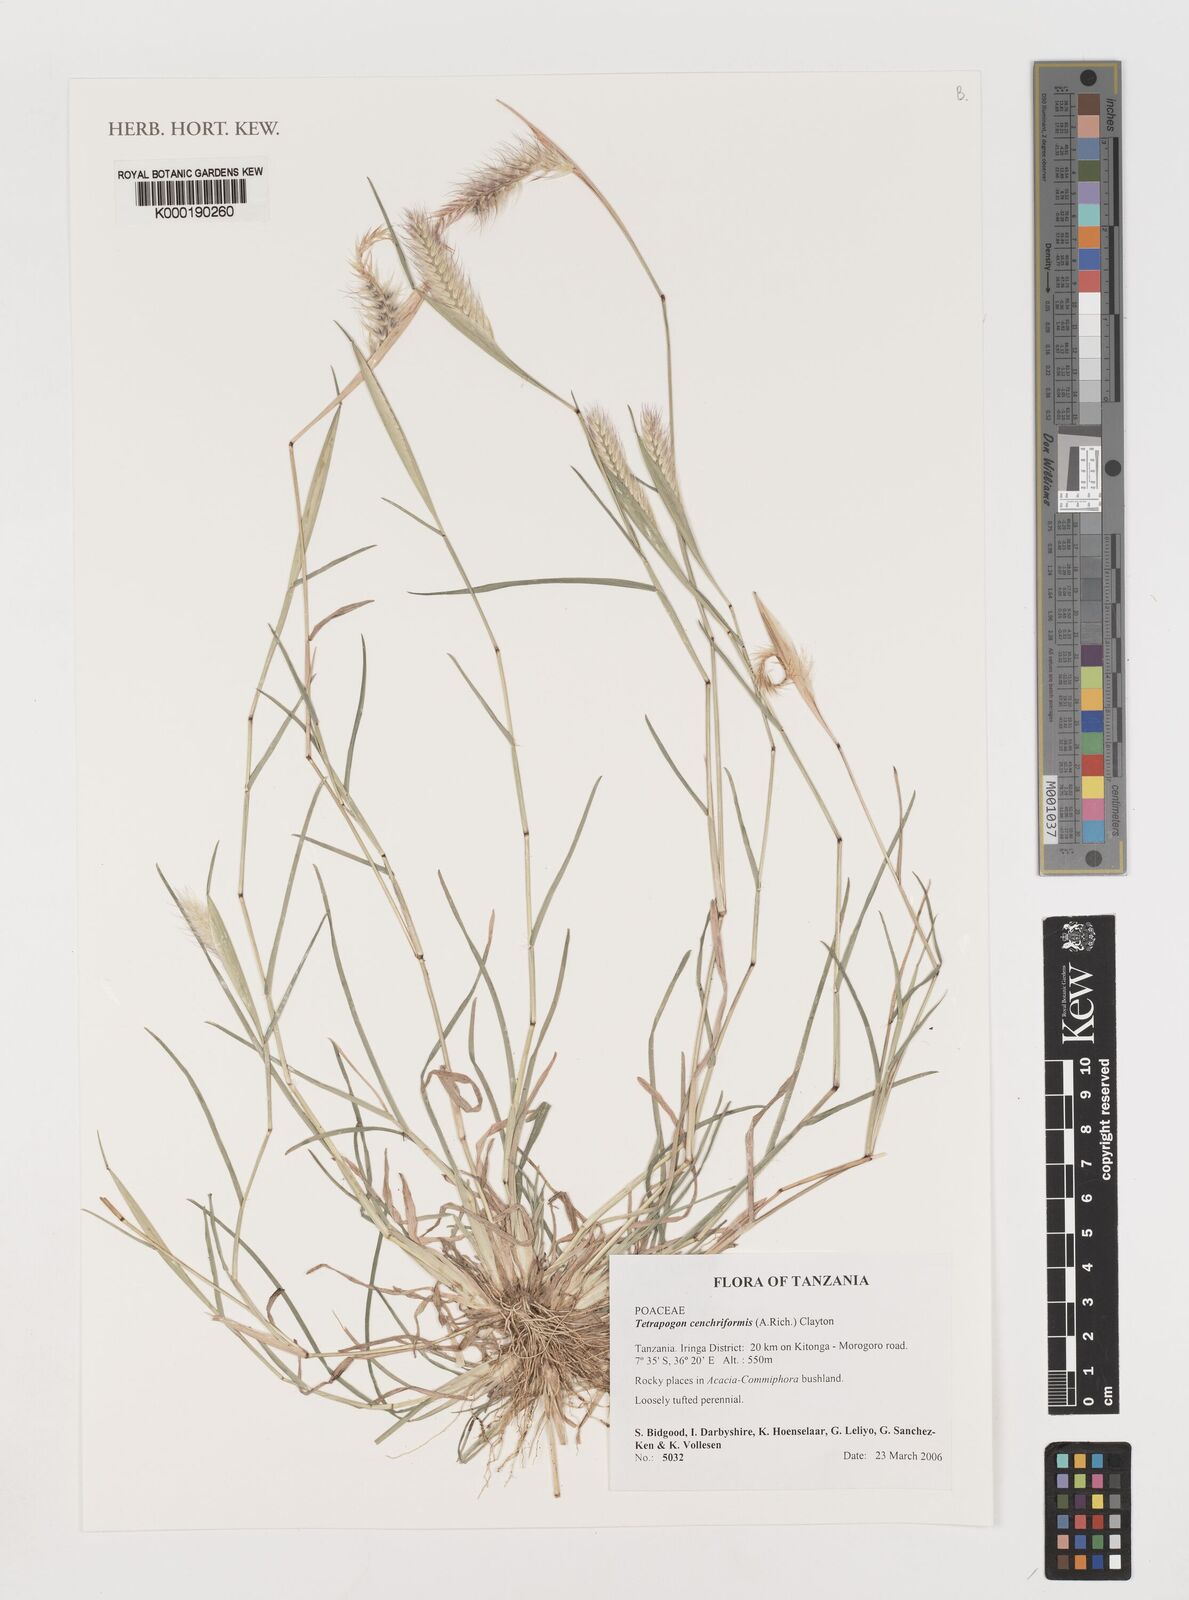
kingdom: Plantae
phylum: Tracheophyta
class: Liliopsida
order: Poales
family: Poaceae
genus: Tetrapogon
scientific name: Tetrapogon cenchriformis
